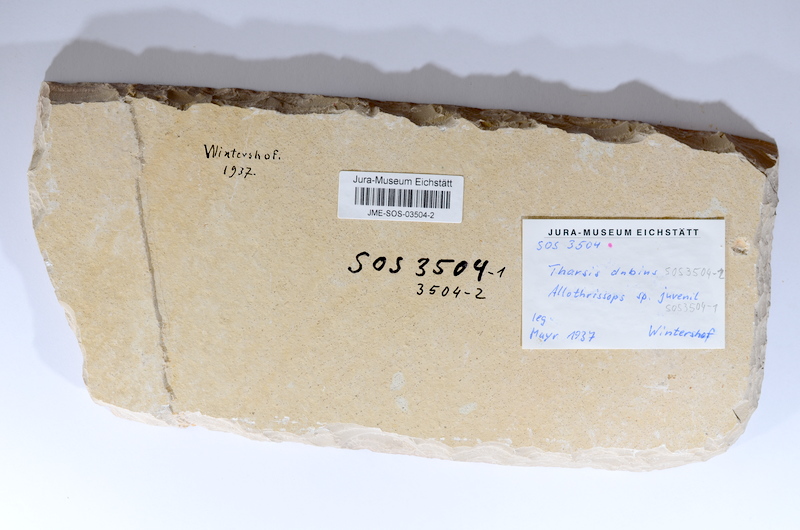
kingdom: Animalia
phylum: Chordata
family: Ascalaboidae
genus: Tharsis
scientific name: Tharsis dubius
